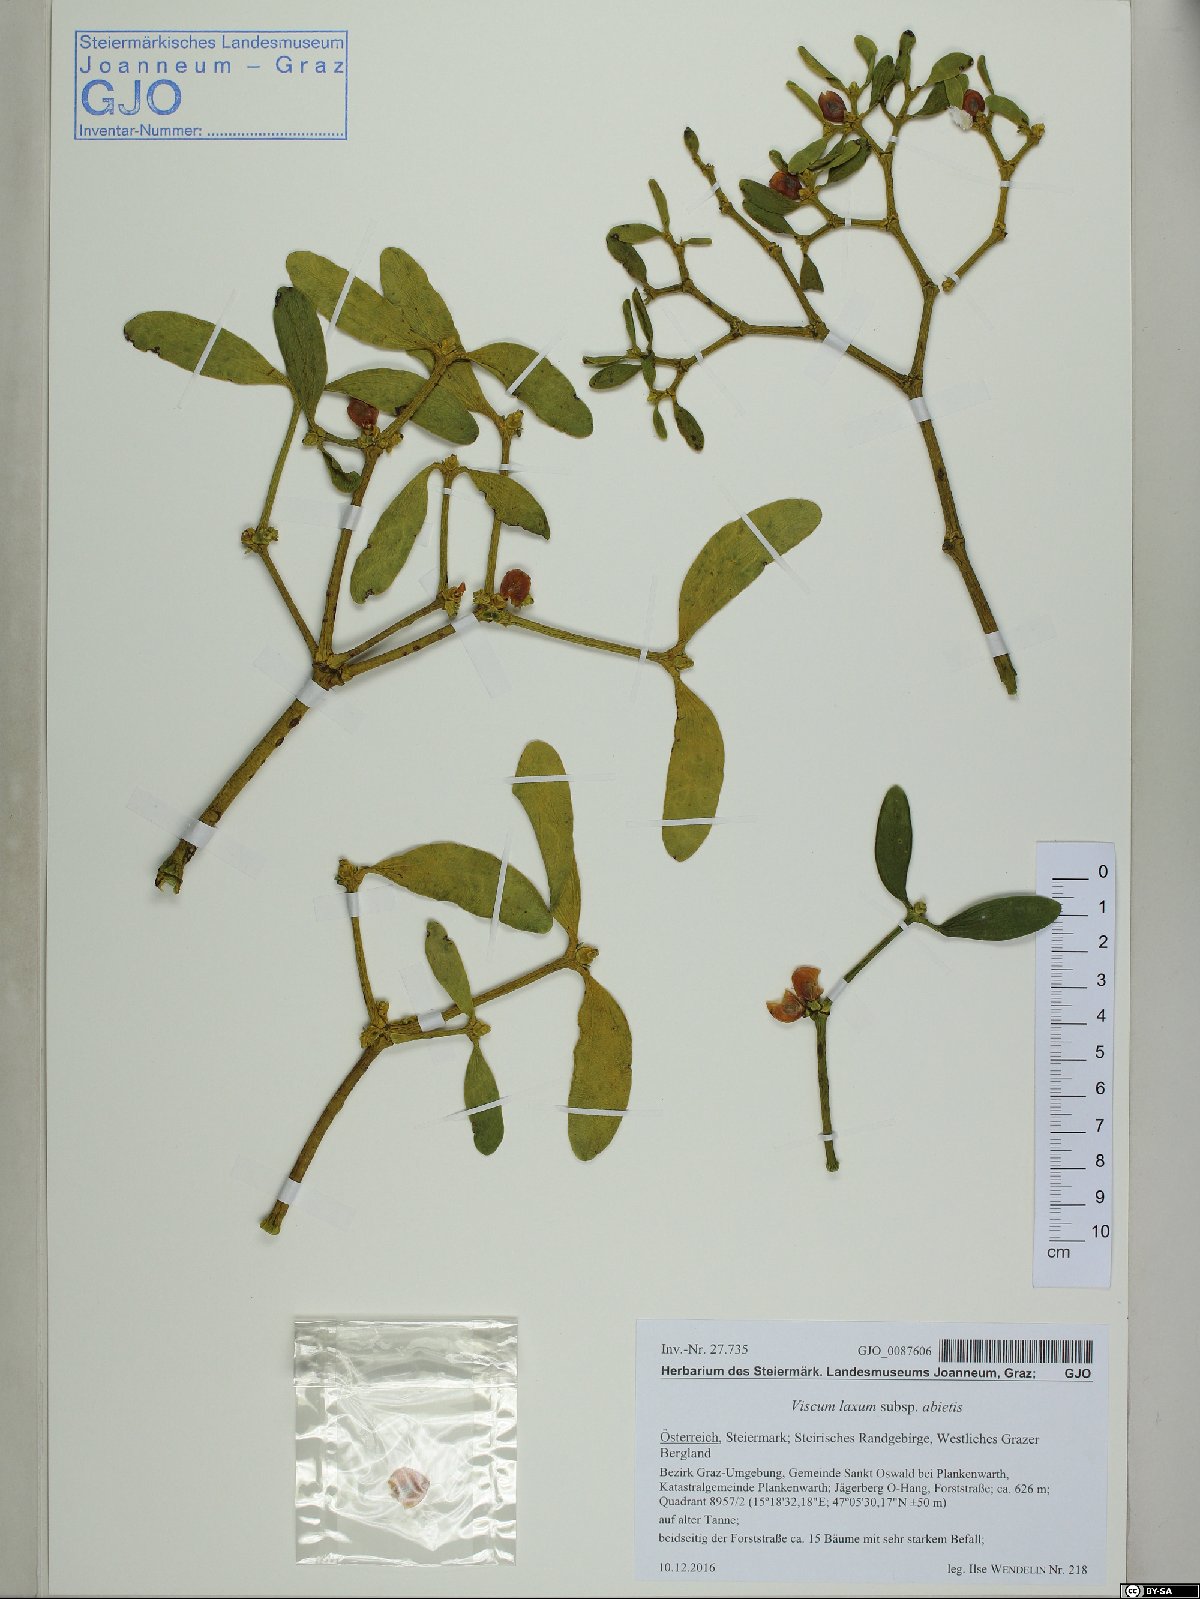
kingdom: Plantae
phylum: Tracheophyta
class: Magnoliopsida
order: Santalales
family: Viscaceae
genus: Viscum
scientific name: Viscum album
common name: Mistletoe
